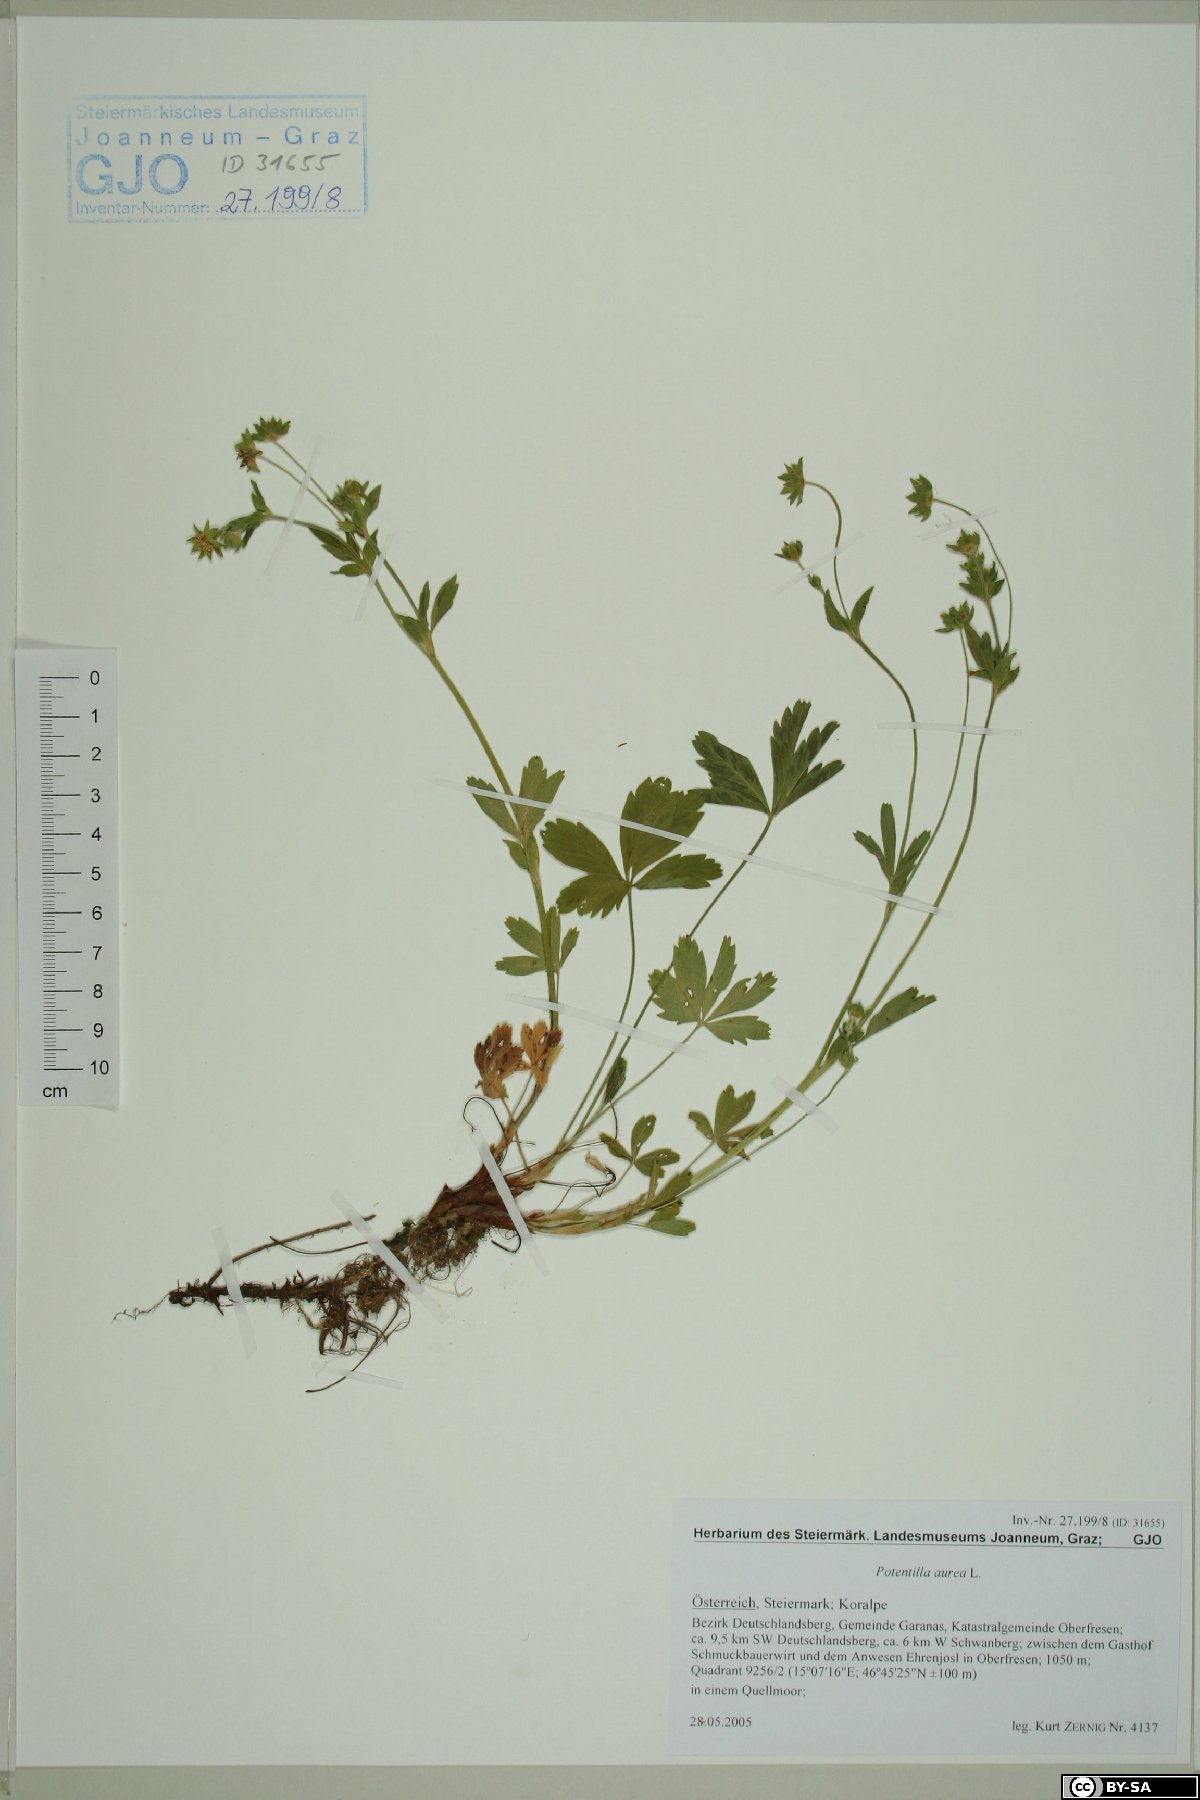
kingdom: Plantae
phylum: Tracheophyta
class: Magnoliopsida
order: Rosales
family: Rosaceae
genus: Potentilla
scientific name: Potentilla aurea
